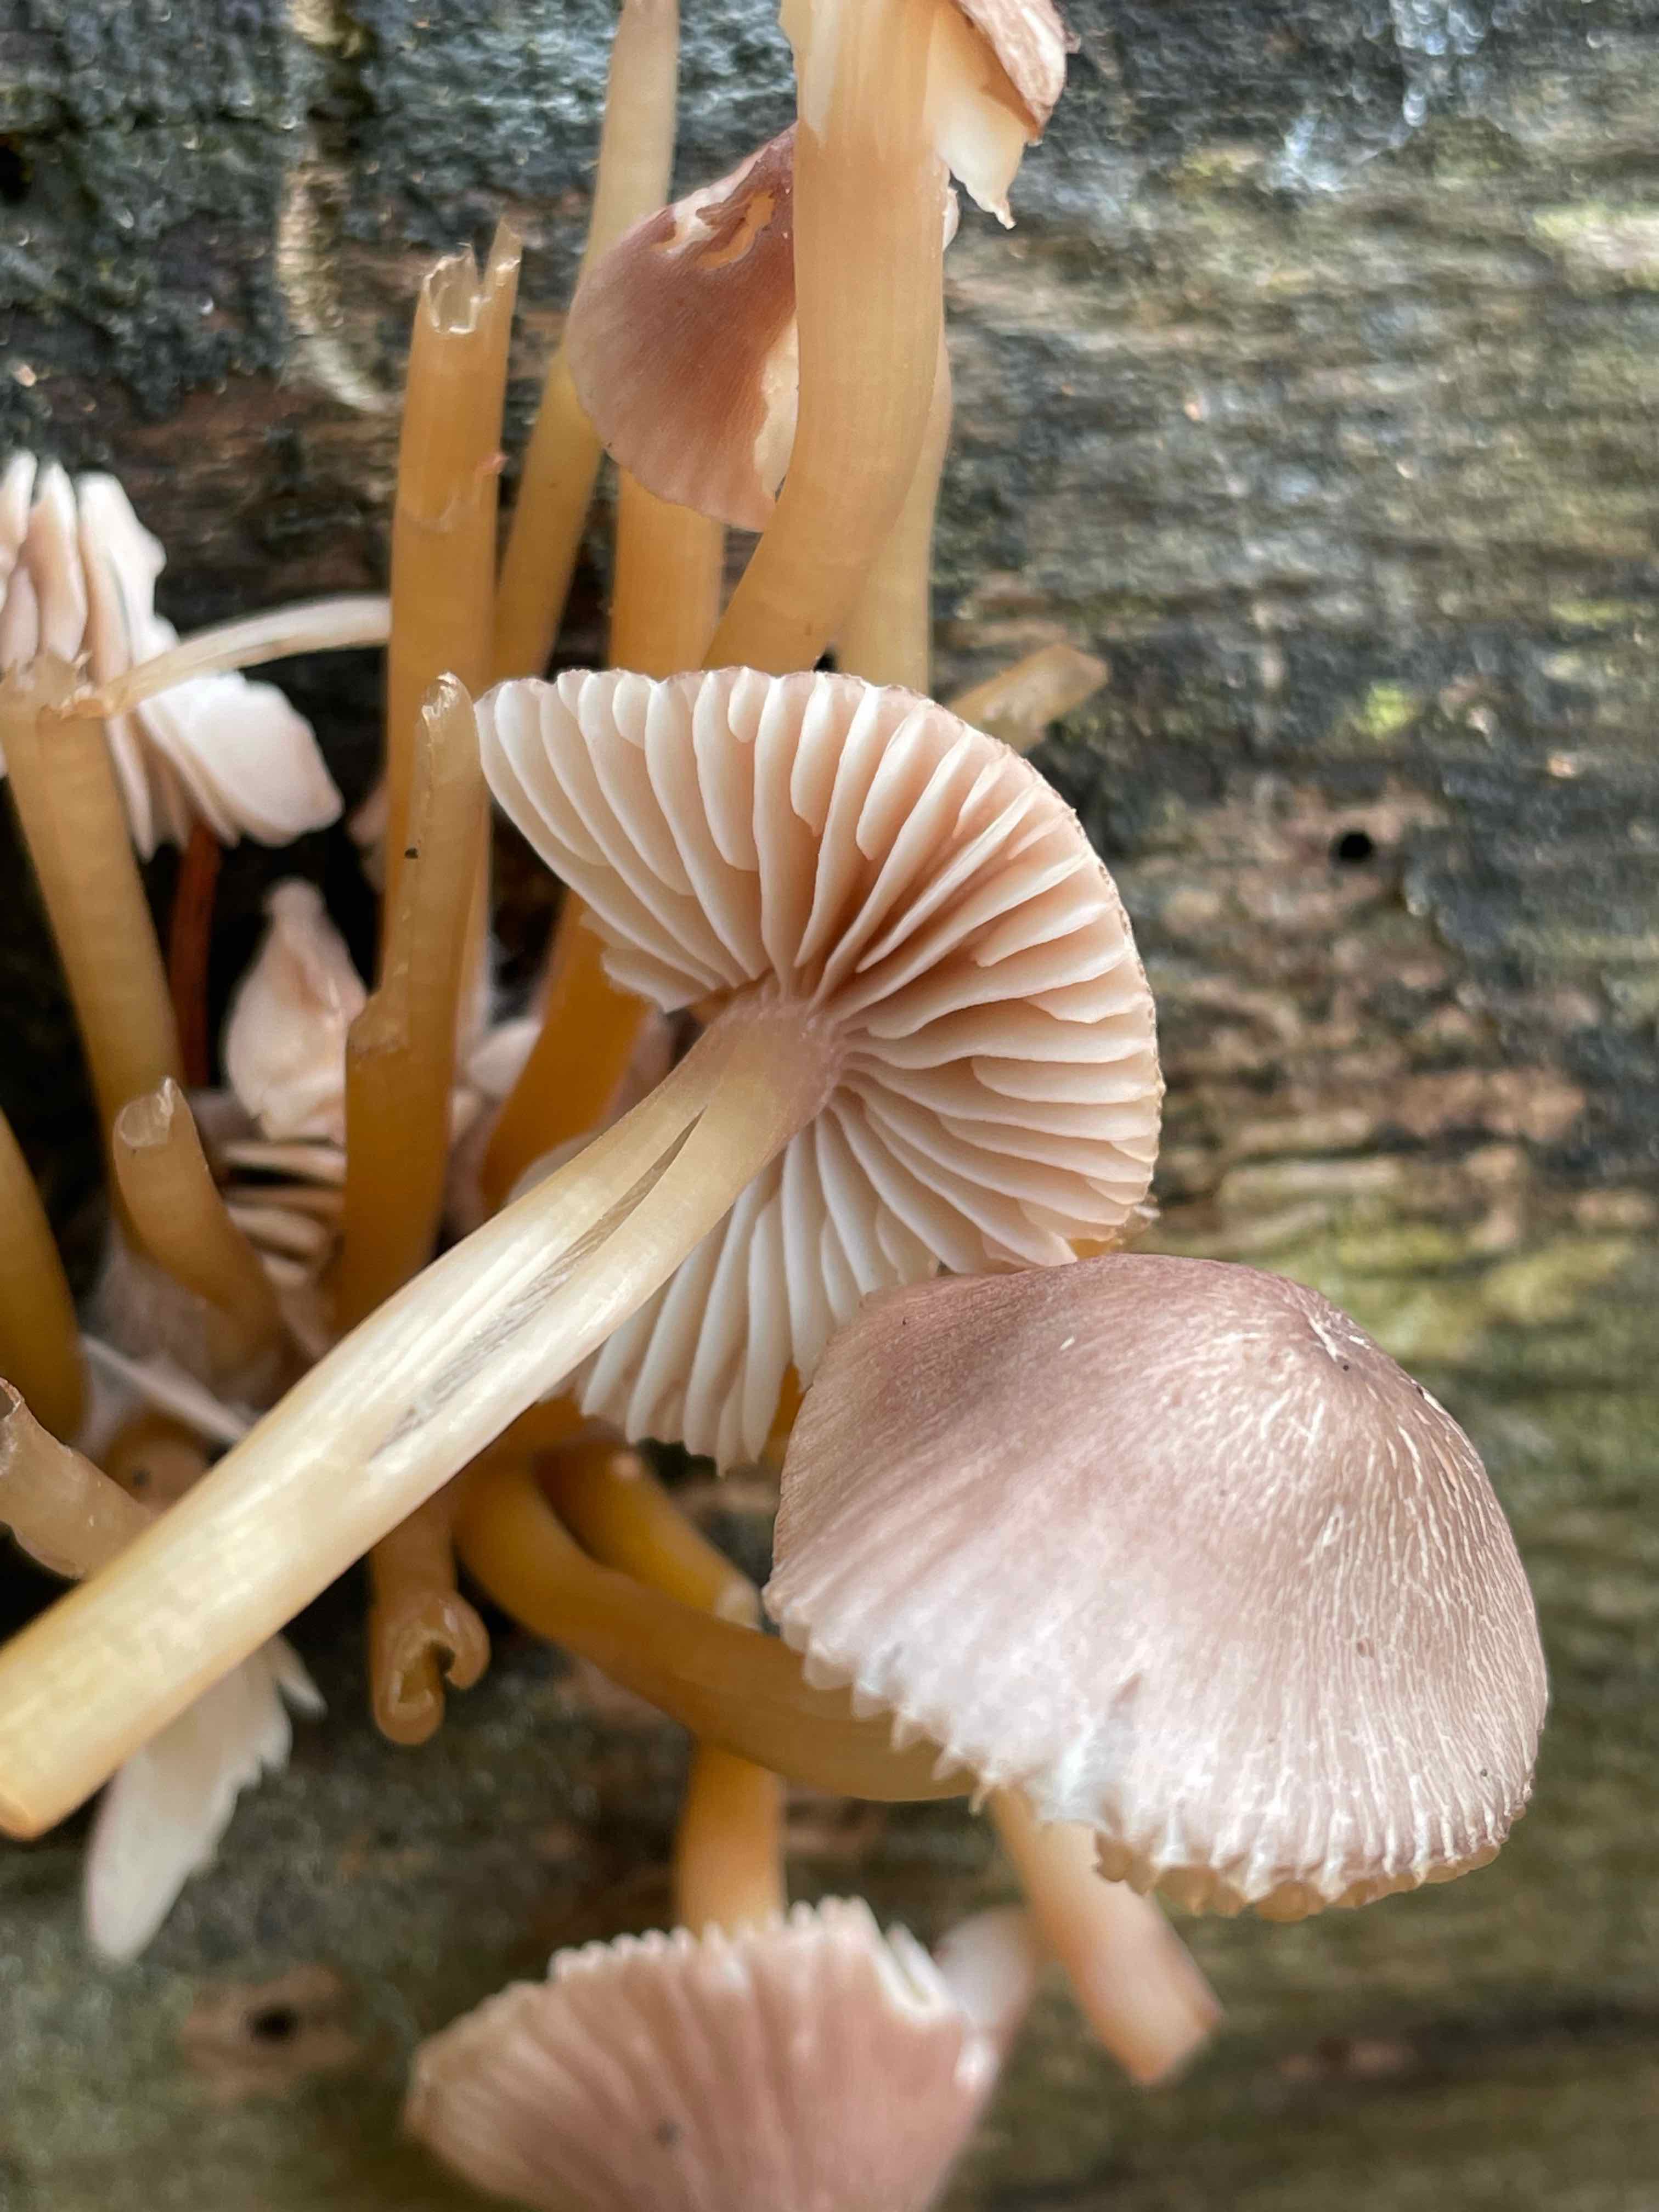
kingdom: Fungi
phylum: Basidiomycota
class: Agaricomycetes
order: Agaricales
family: Mycenaceae
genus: Mycena
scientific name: Mycena renati
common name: smuk huesvamp
